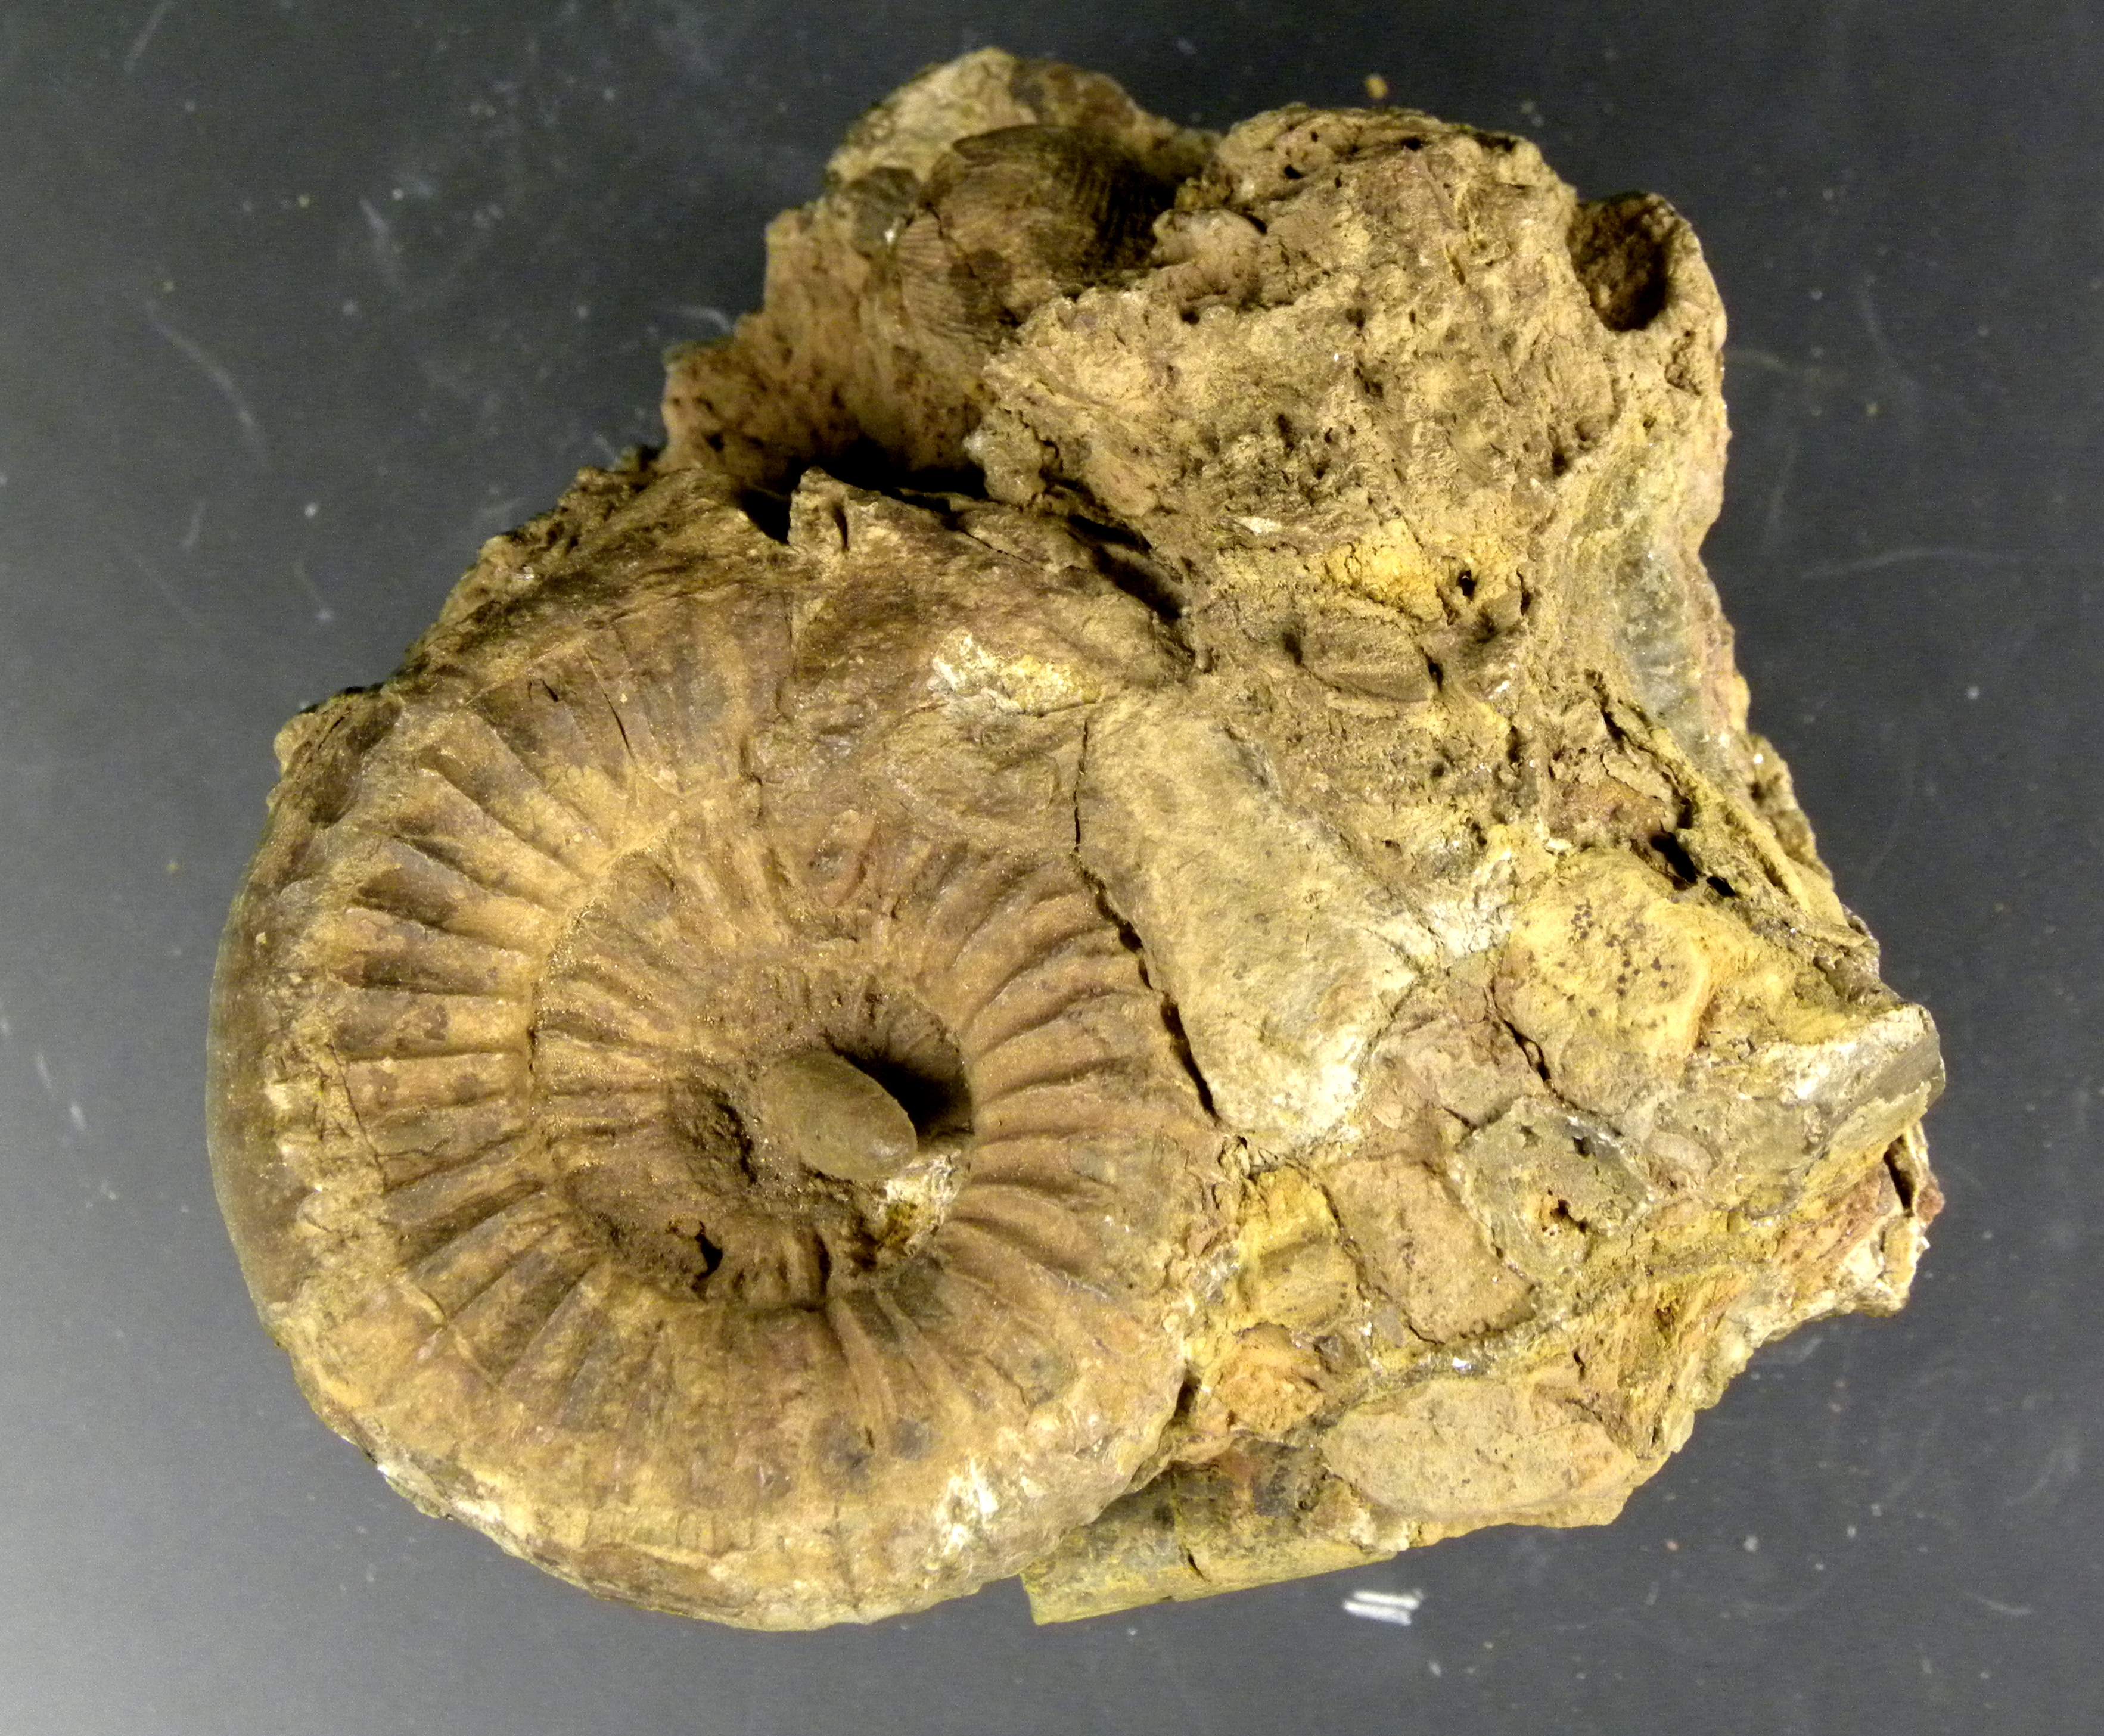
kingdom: Animalia
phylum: Mollusca
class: Cephalopoda
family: Dactylioceratidae
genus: Catacoeloceras
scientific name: Catacoeloceras crassum
